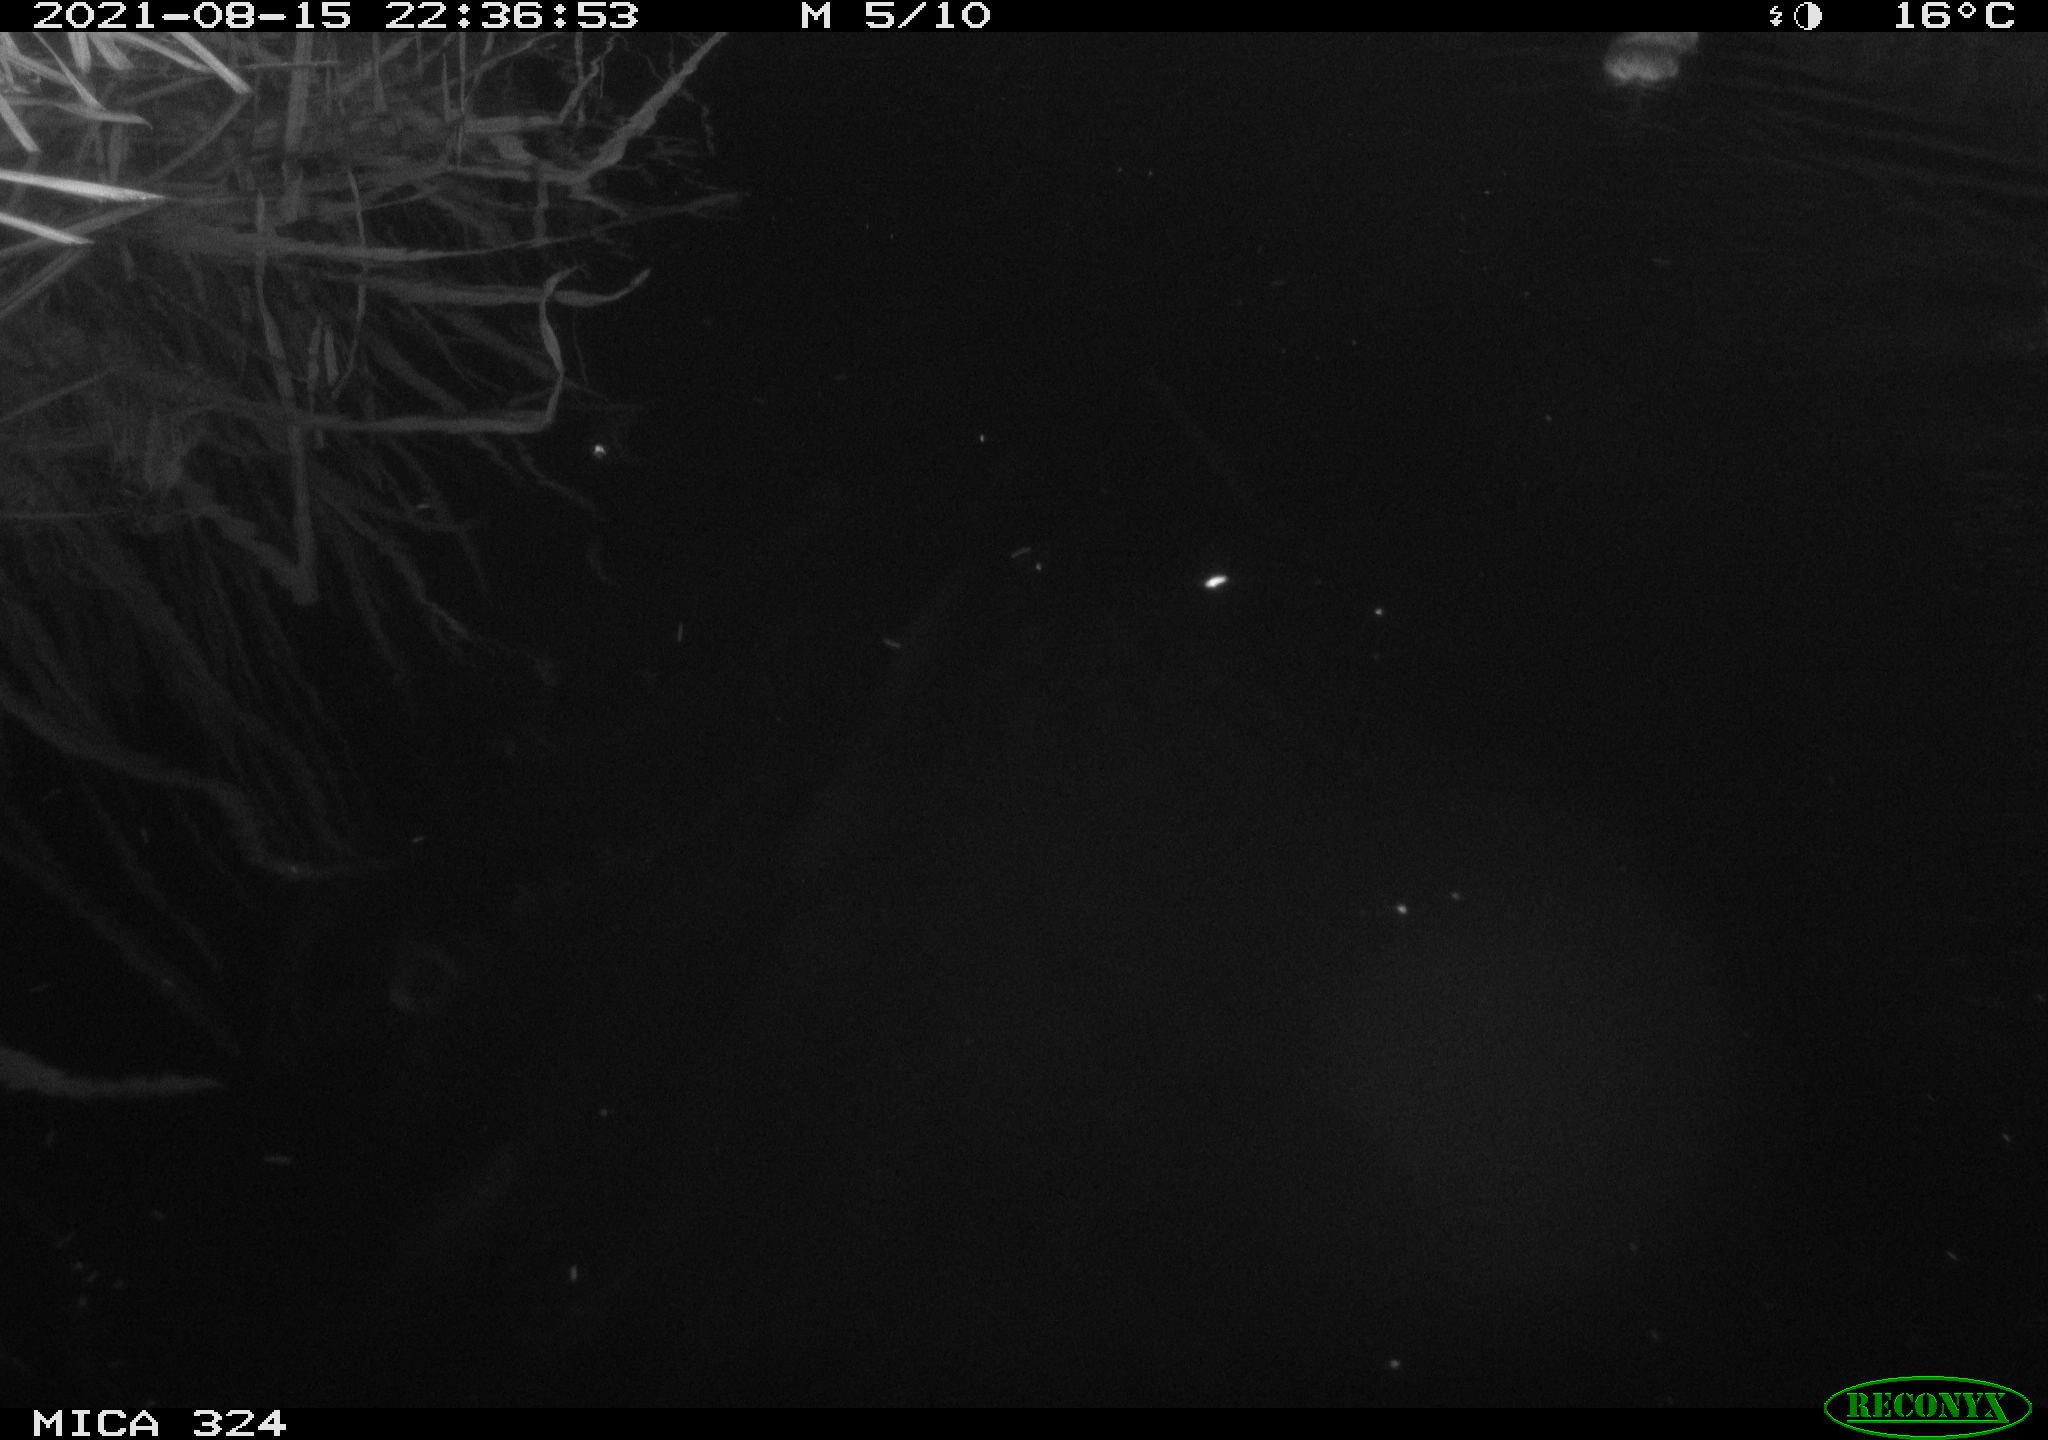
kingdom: Animalia
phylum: Chordata
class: Mammalia
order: Rodentia
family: Cricetidae
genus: Ondatra
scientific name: Ondatra zibethicus
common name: Muskrat
